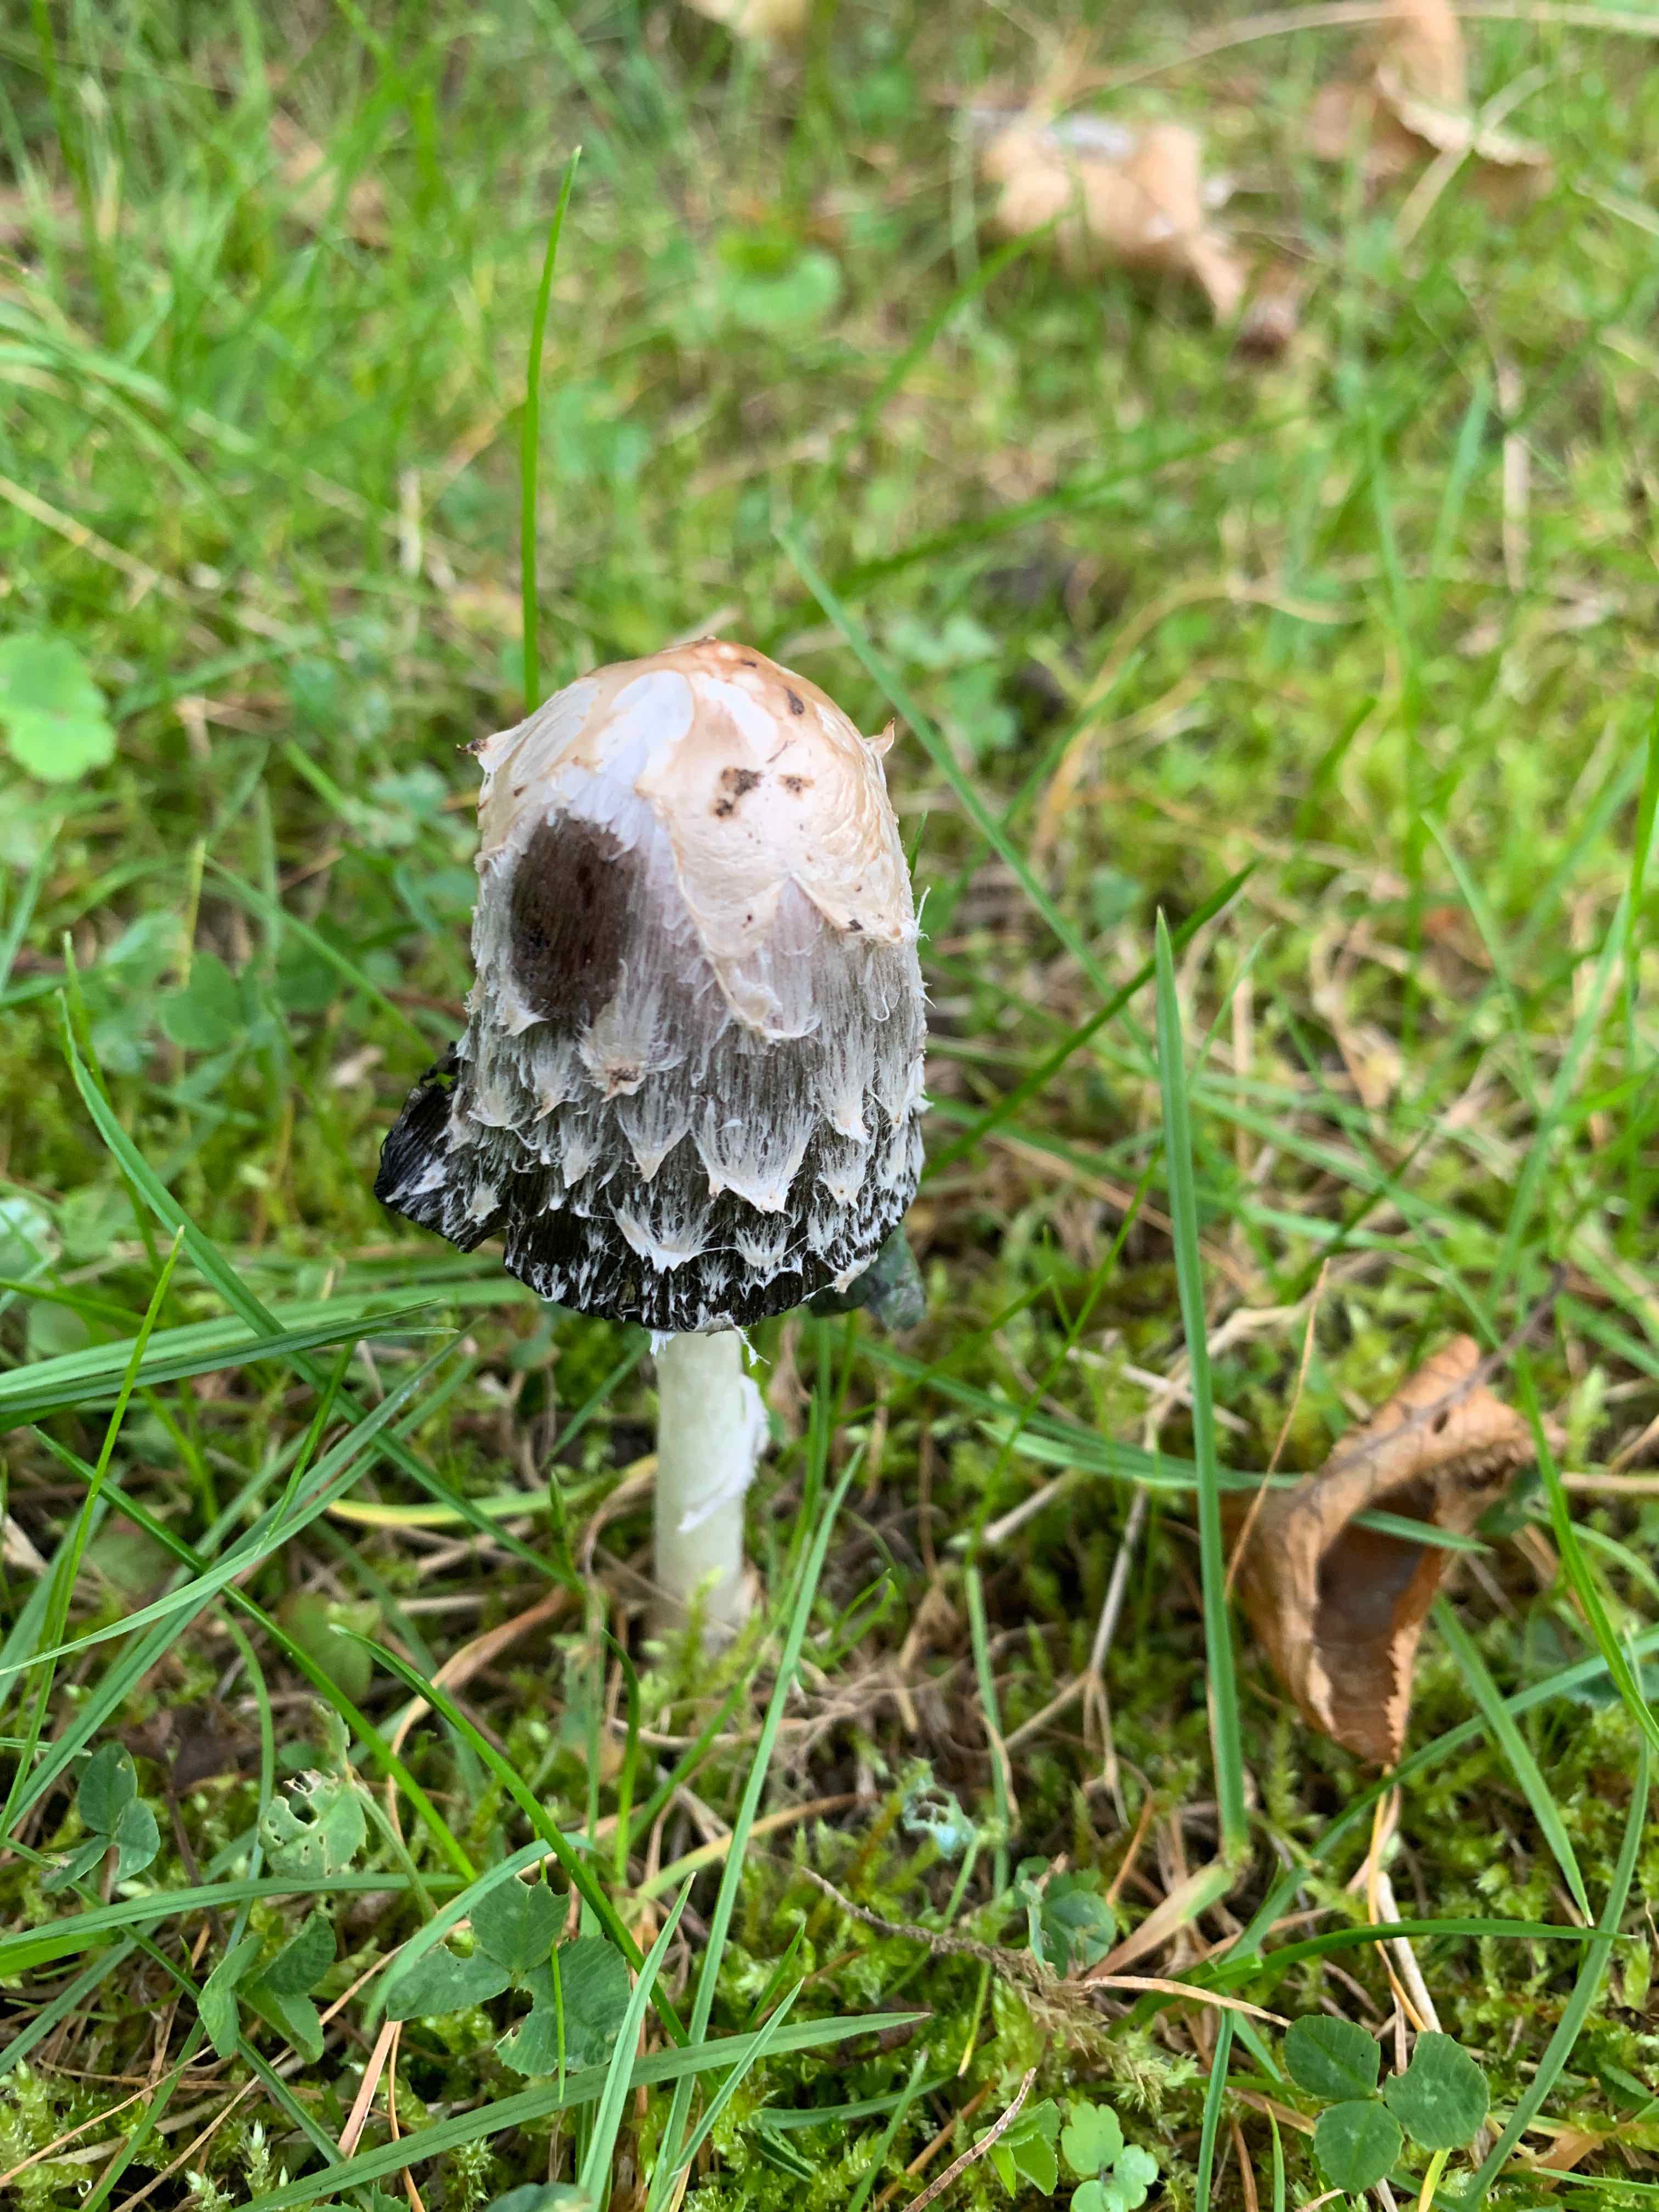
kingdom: Fungi
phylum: Basidiomycota
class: Agaricomycetes
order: Agaricales
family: Agaricaceae
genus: Coprinus
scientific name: Coprinus comatus
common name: stor parykhat
